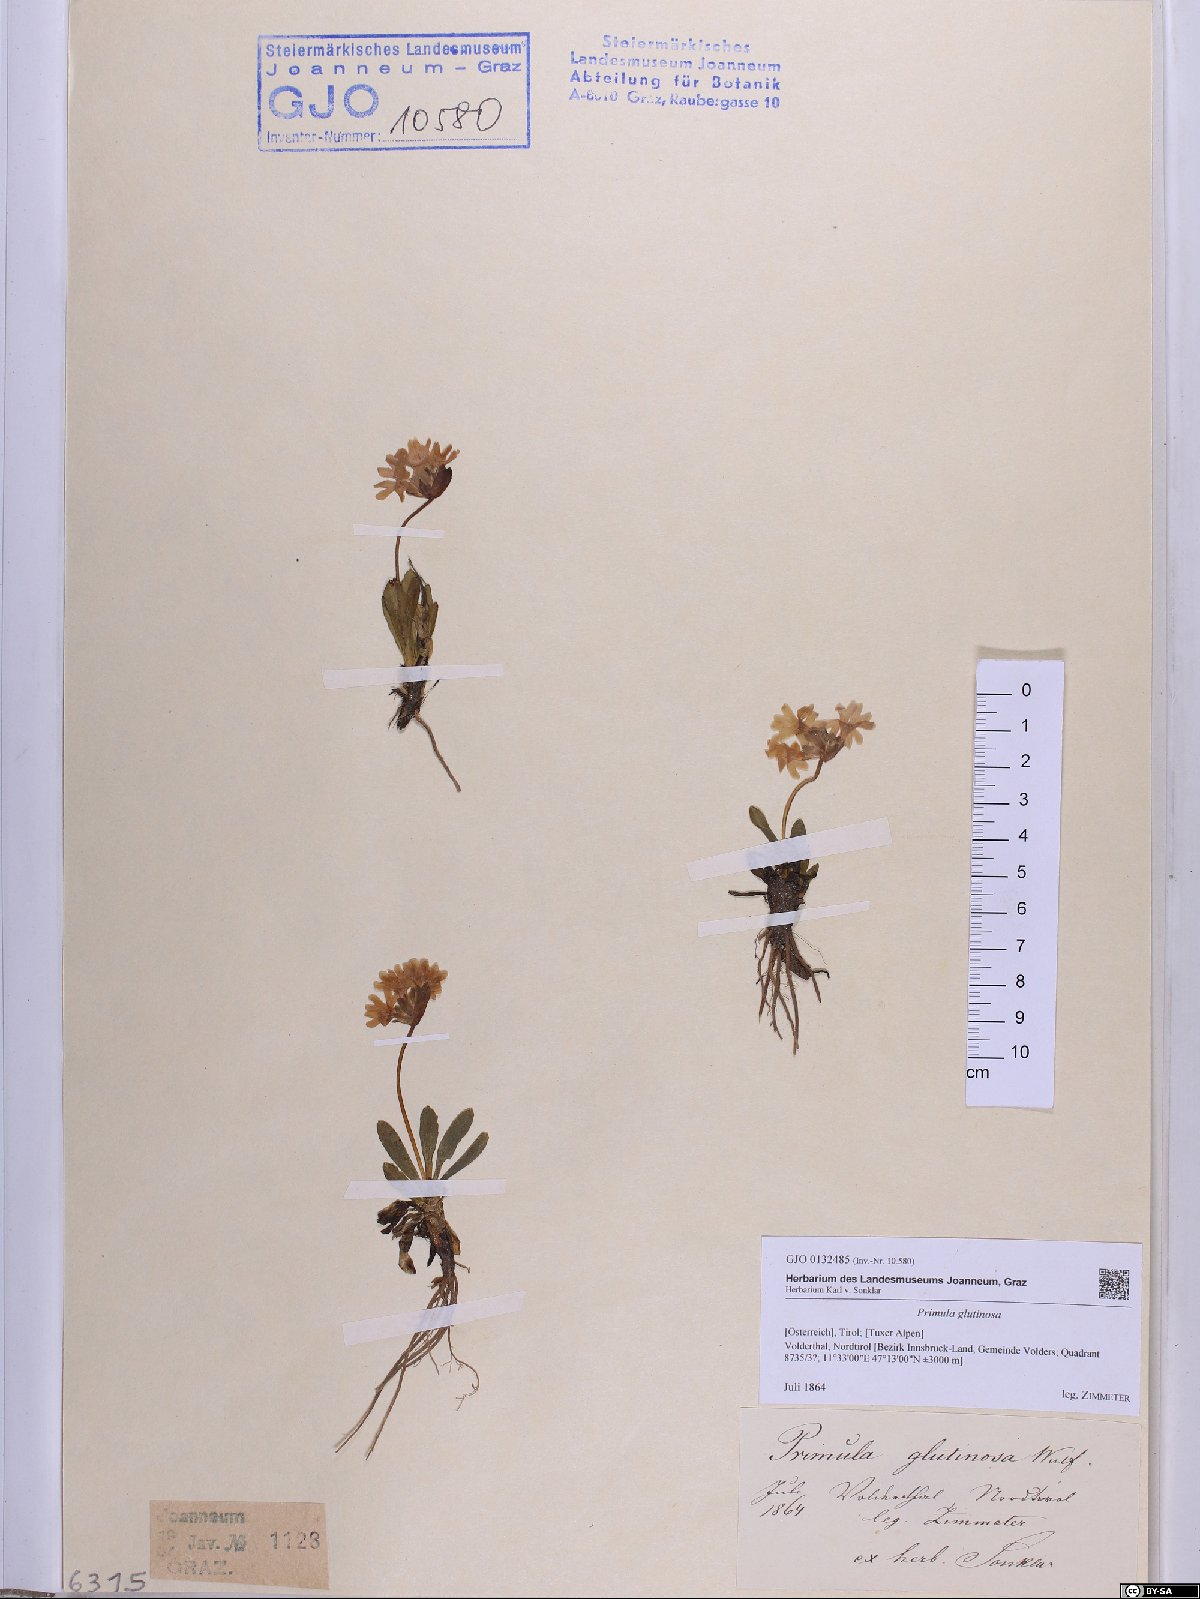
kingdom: Plantae
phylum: Tracheophyta
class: Magnoliopsida
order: Ericales
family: Primulaceae
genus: Primula
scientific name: Primula glutinosa
